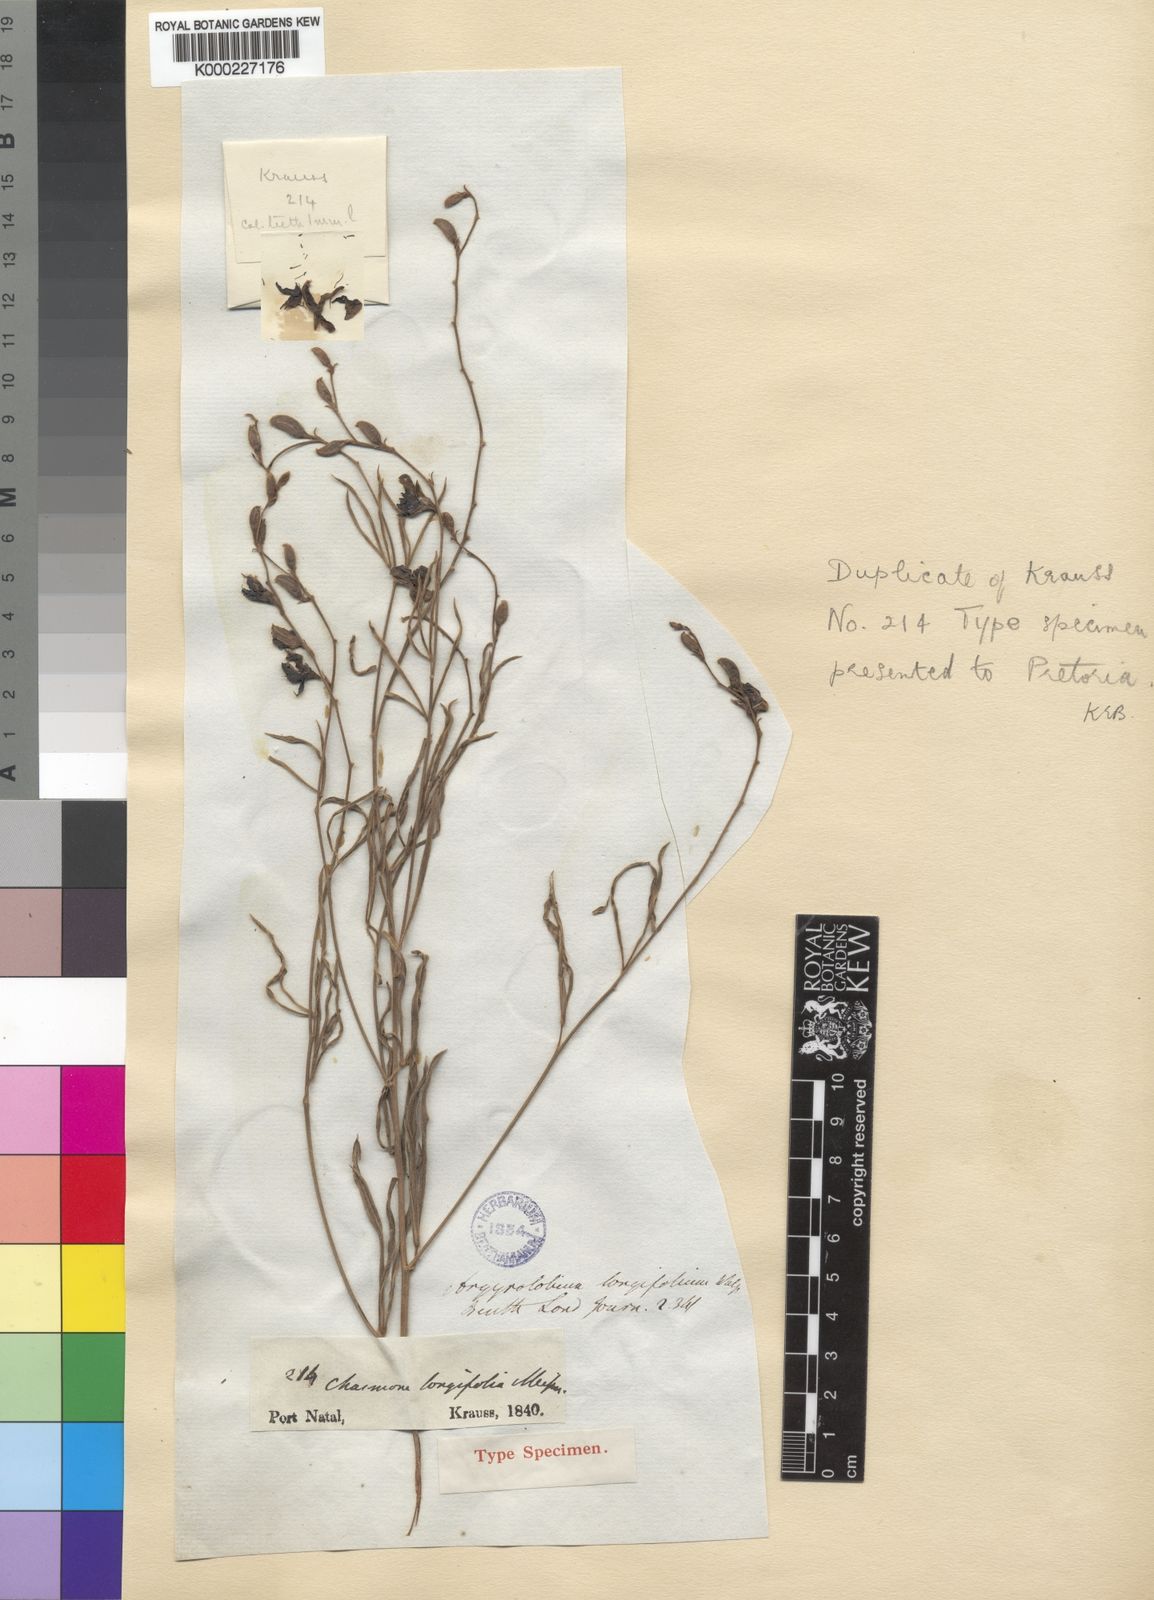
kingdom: Plantae
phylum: Tracheophyta
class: Magnoliopsida
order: Fabales
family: Fabaceae
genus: Argyrolobium
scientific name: Argyrolobium longifolium
